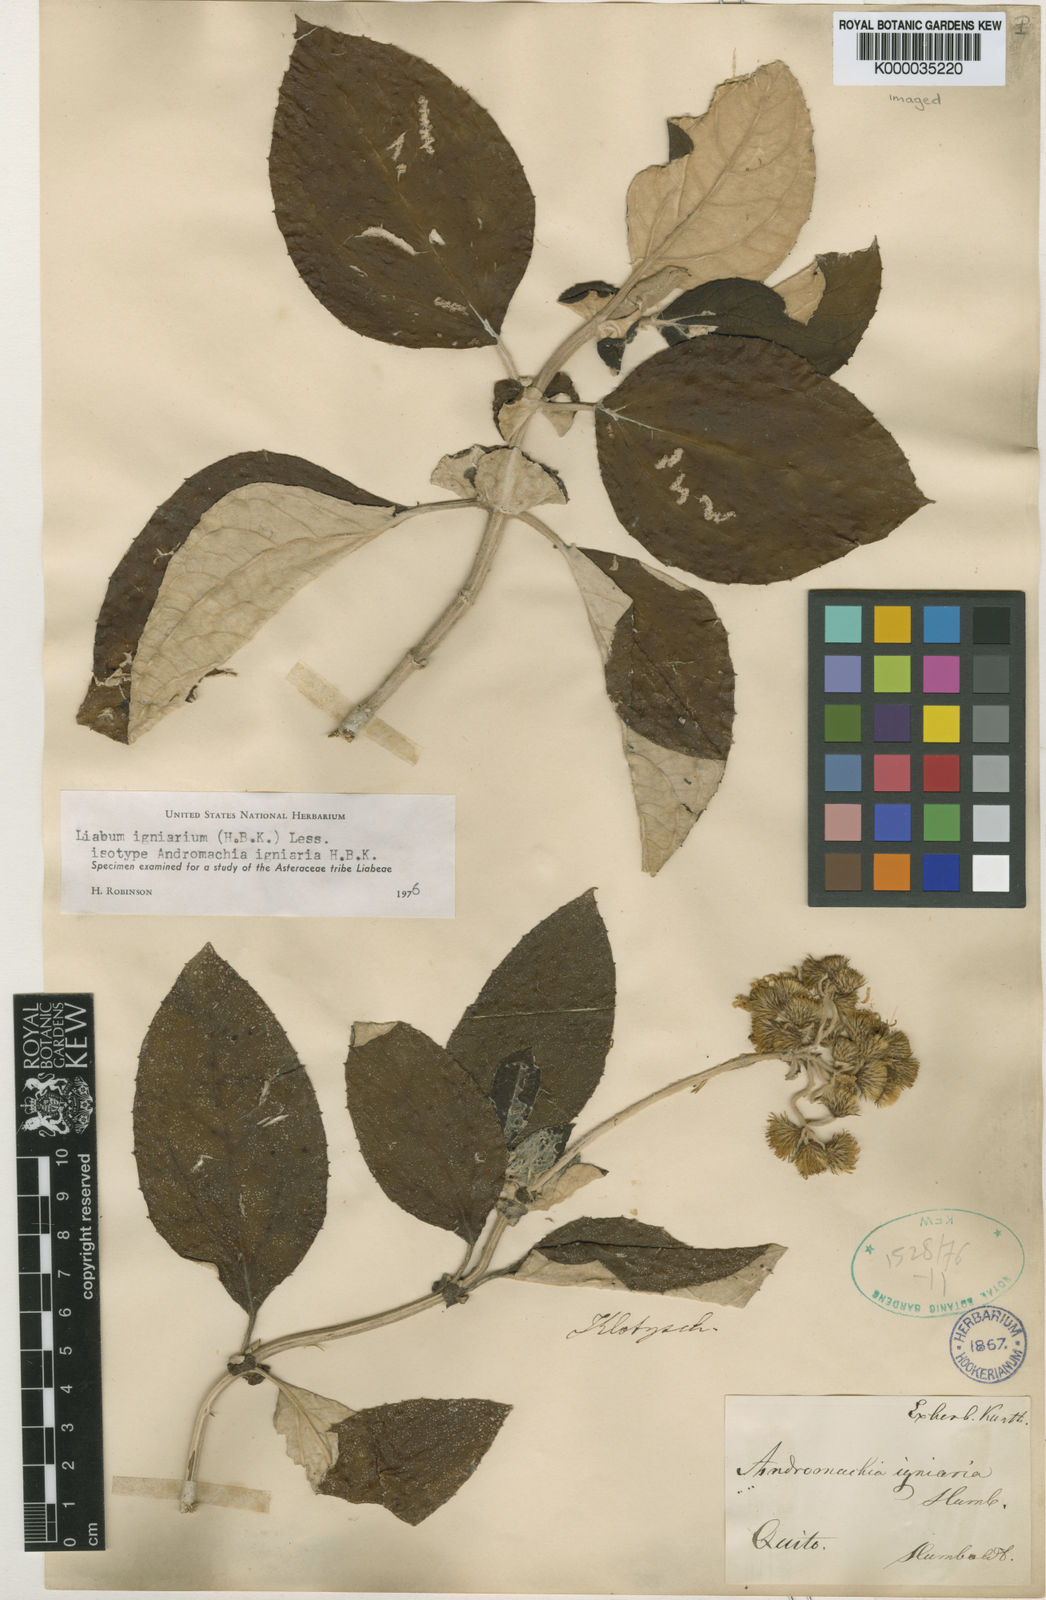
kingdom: Plantae
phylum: Tracheophyta
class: Magnoliopsida
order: Asterales
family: Asteraceae
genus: Liabum
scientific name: Liabum igniarium
